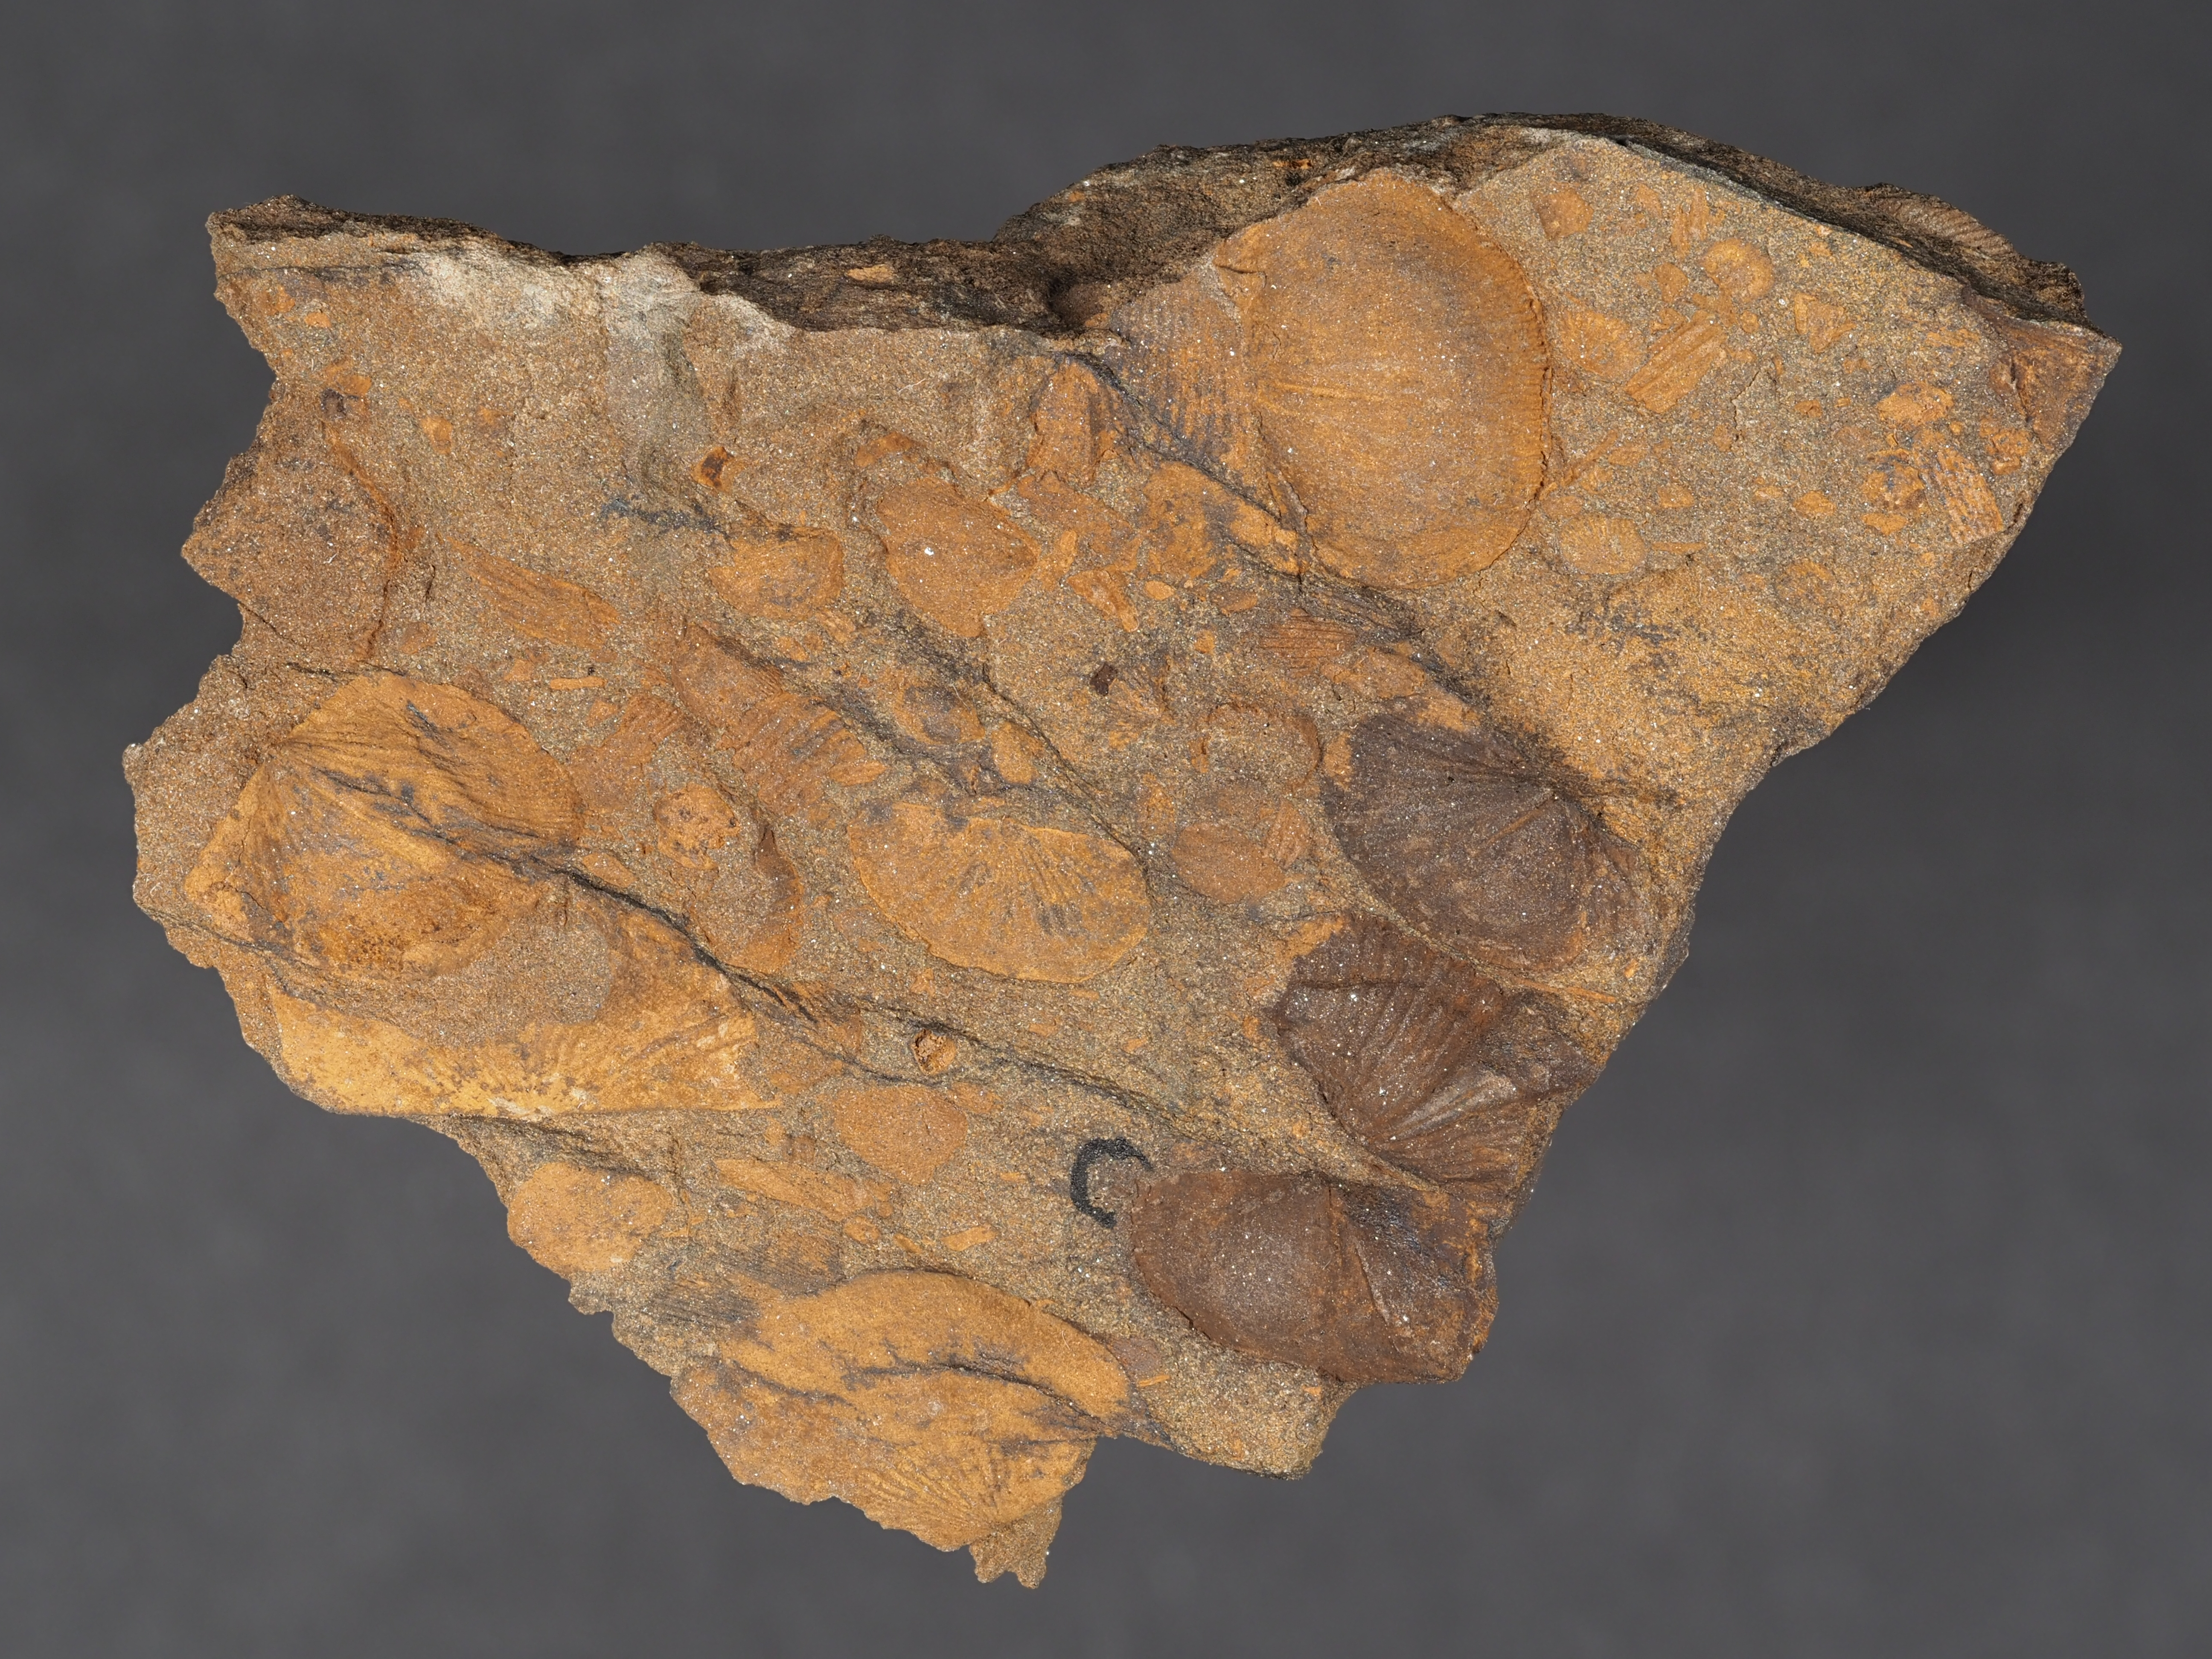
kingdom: Animalia
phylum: Brachiopoda
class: Rhynchonellata
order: Terebratulida
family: Mutationellidae
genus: Mutationella
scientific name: Mutationella
